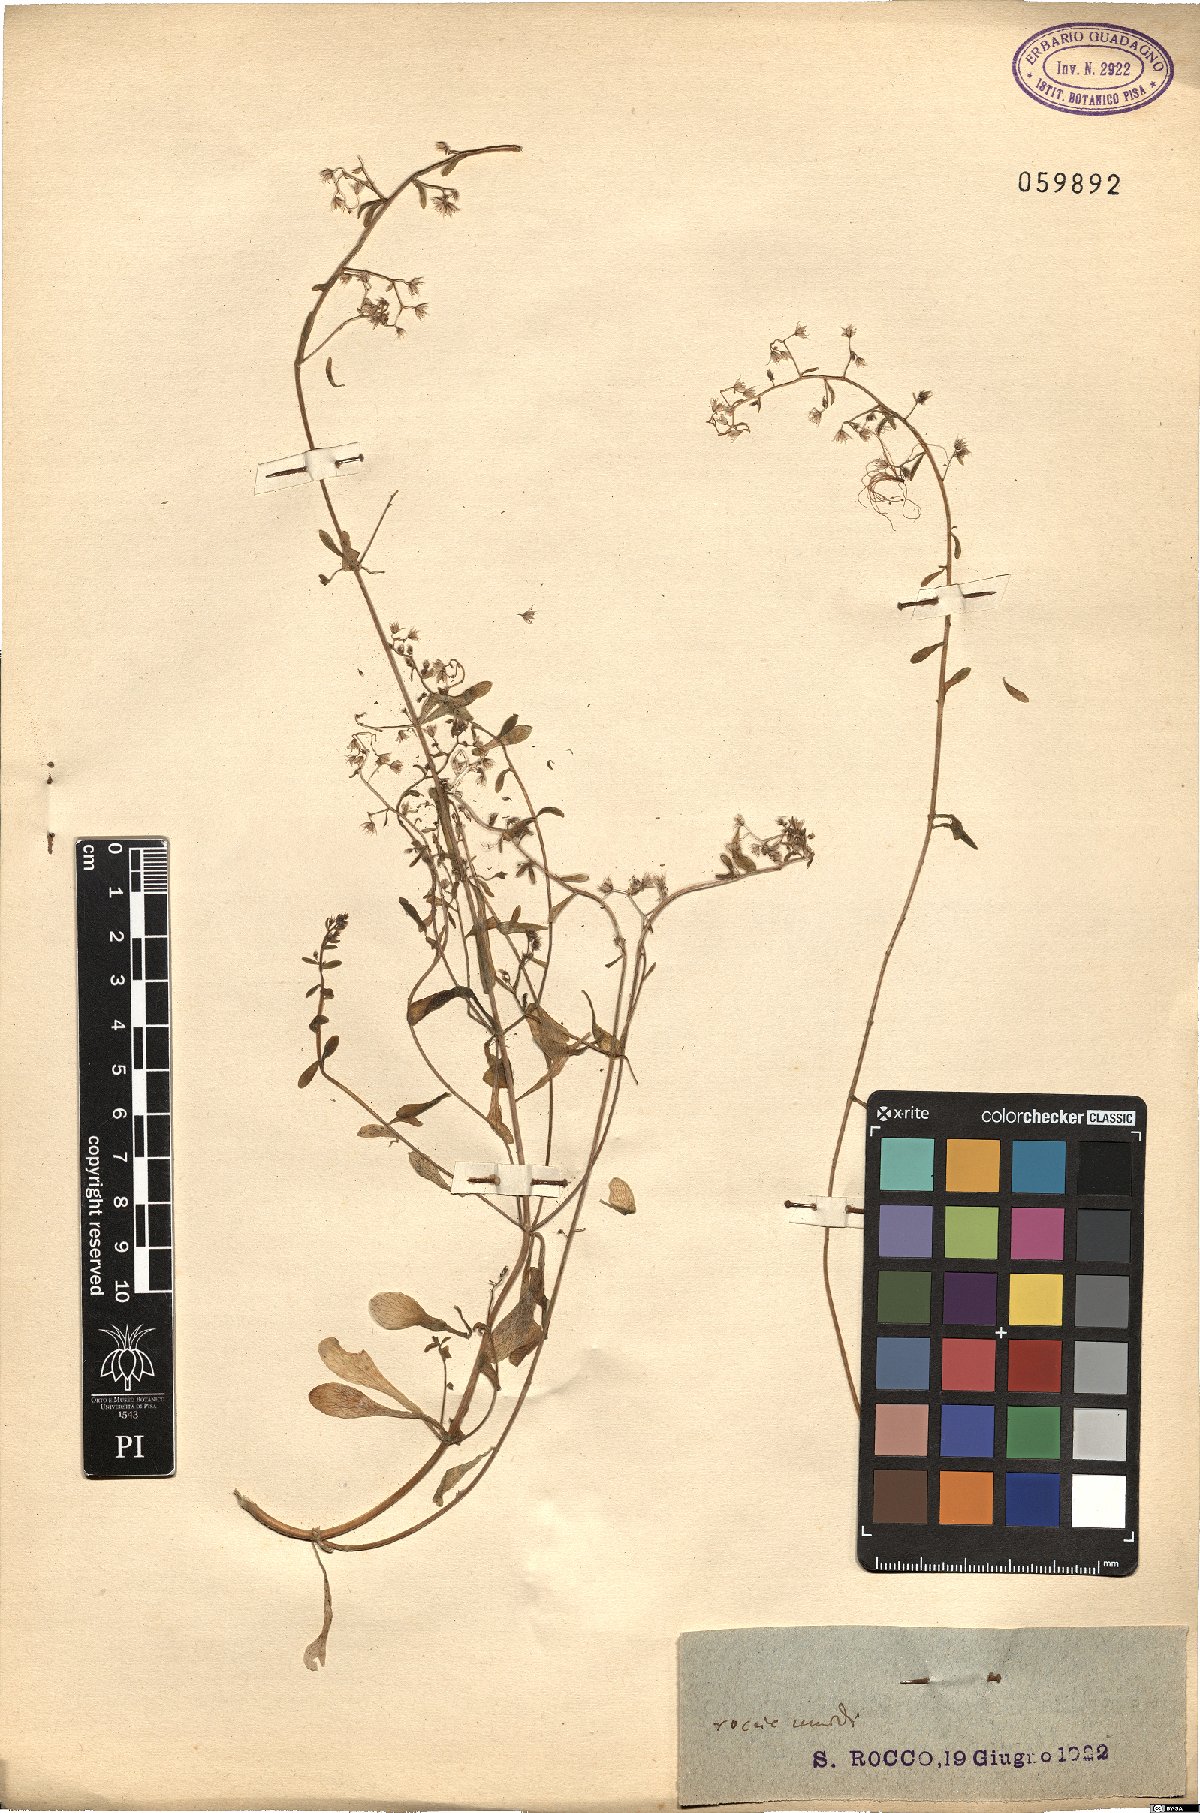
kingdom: Plantae
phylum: Tracheophyta
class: Magnoliopsida
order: Saxifragales
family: Crassulaceae
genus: Sedum
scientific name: Sedum cepaea
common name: Pink stonecrop
